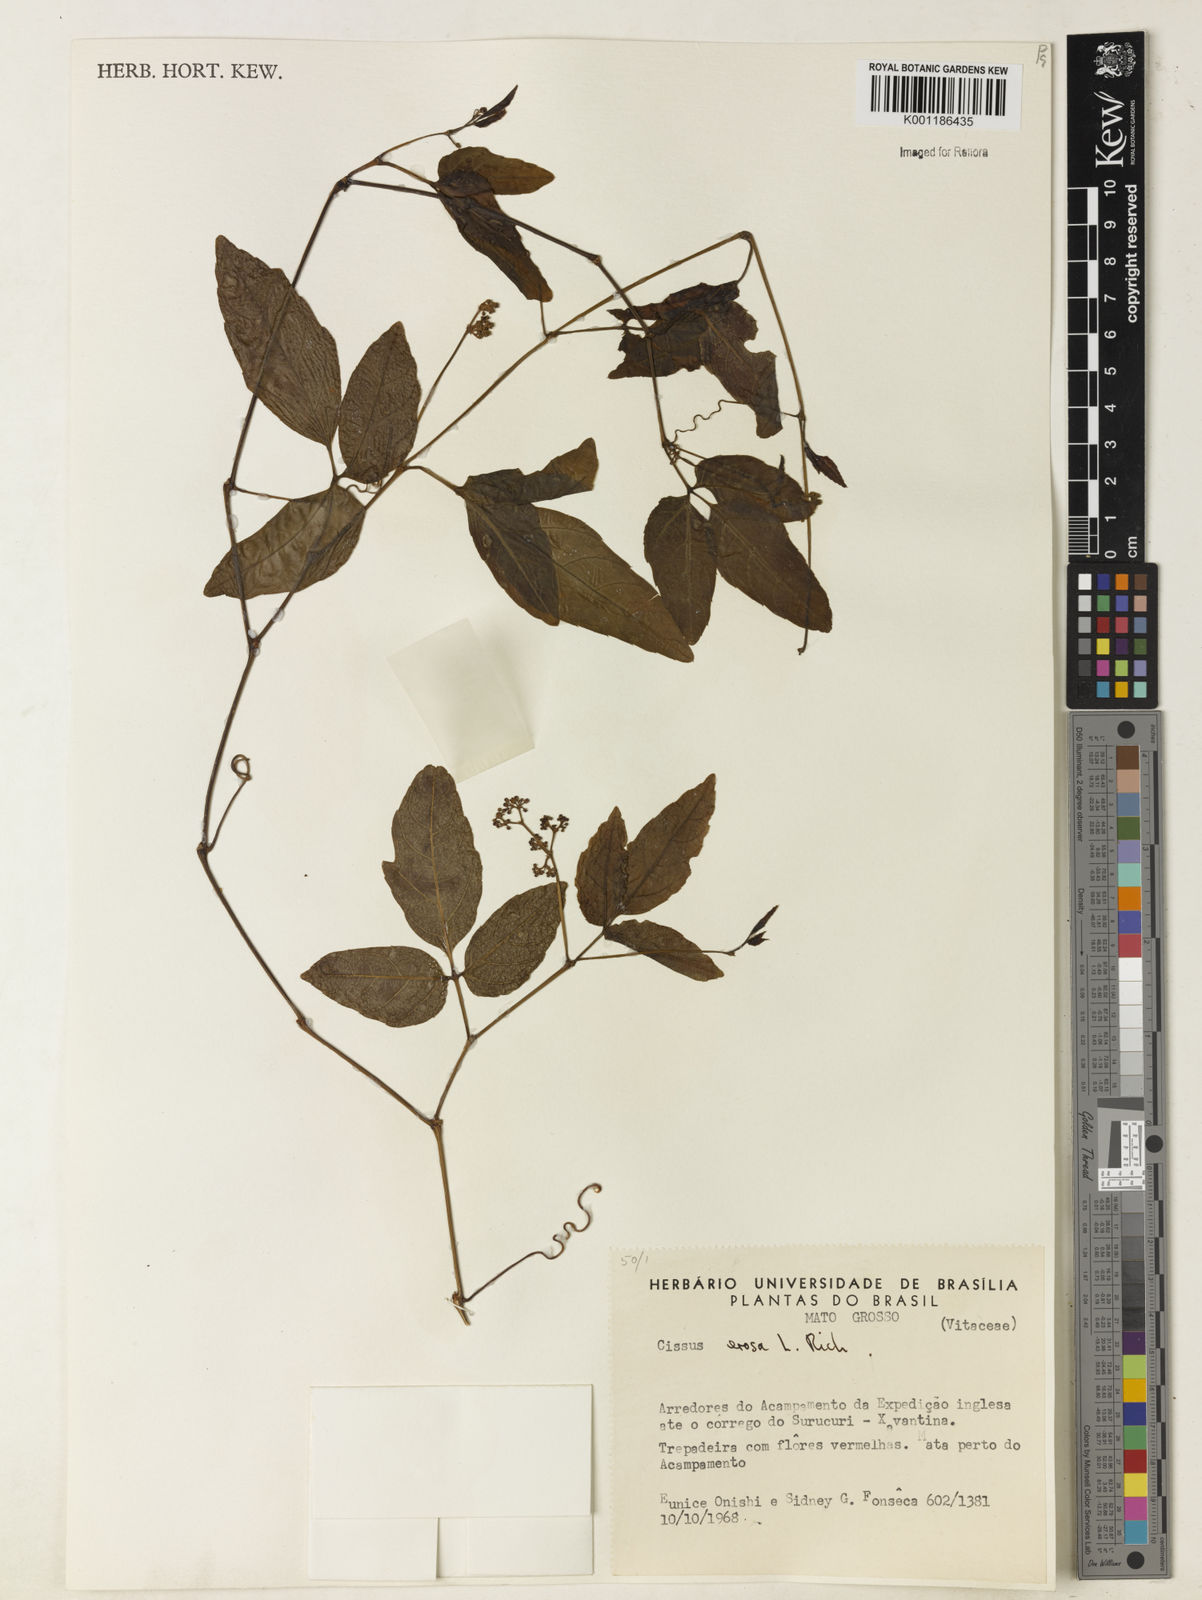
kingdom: Plantae
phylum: Tracheophyta
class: Magnoliopsida
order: Vitales
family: Vitaceae
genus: Cissus
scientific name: Cissus erosa
